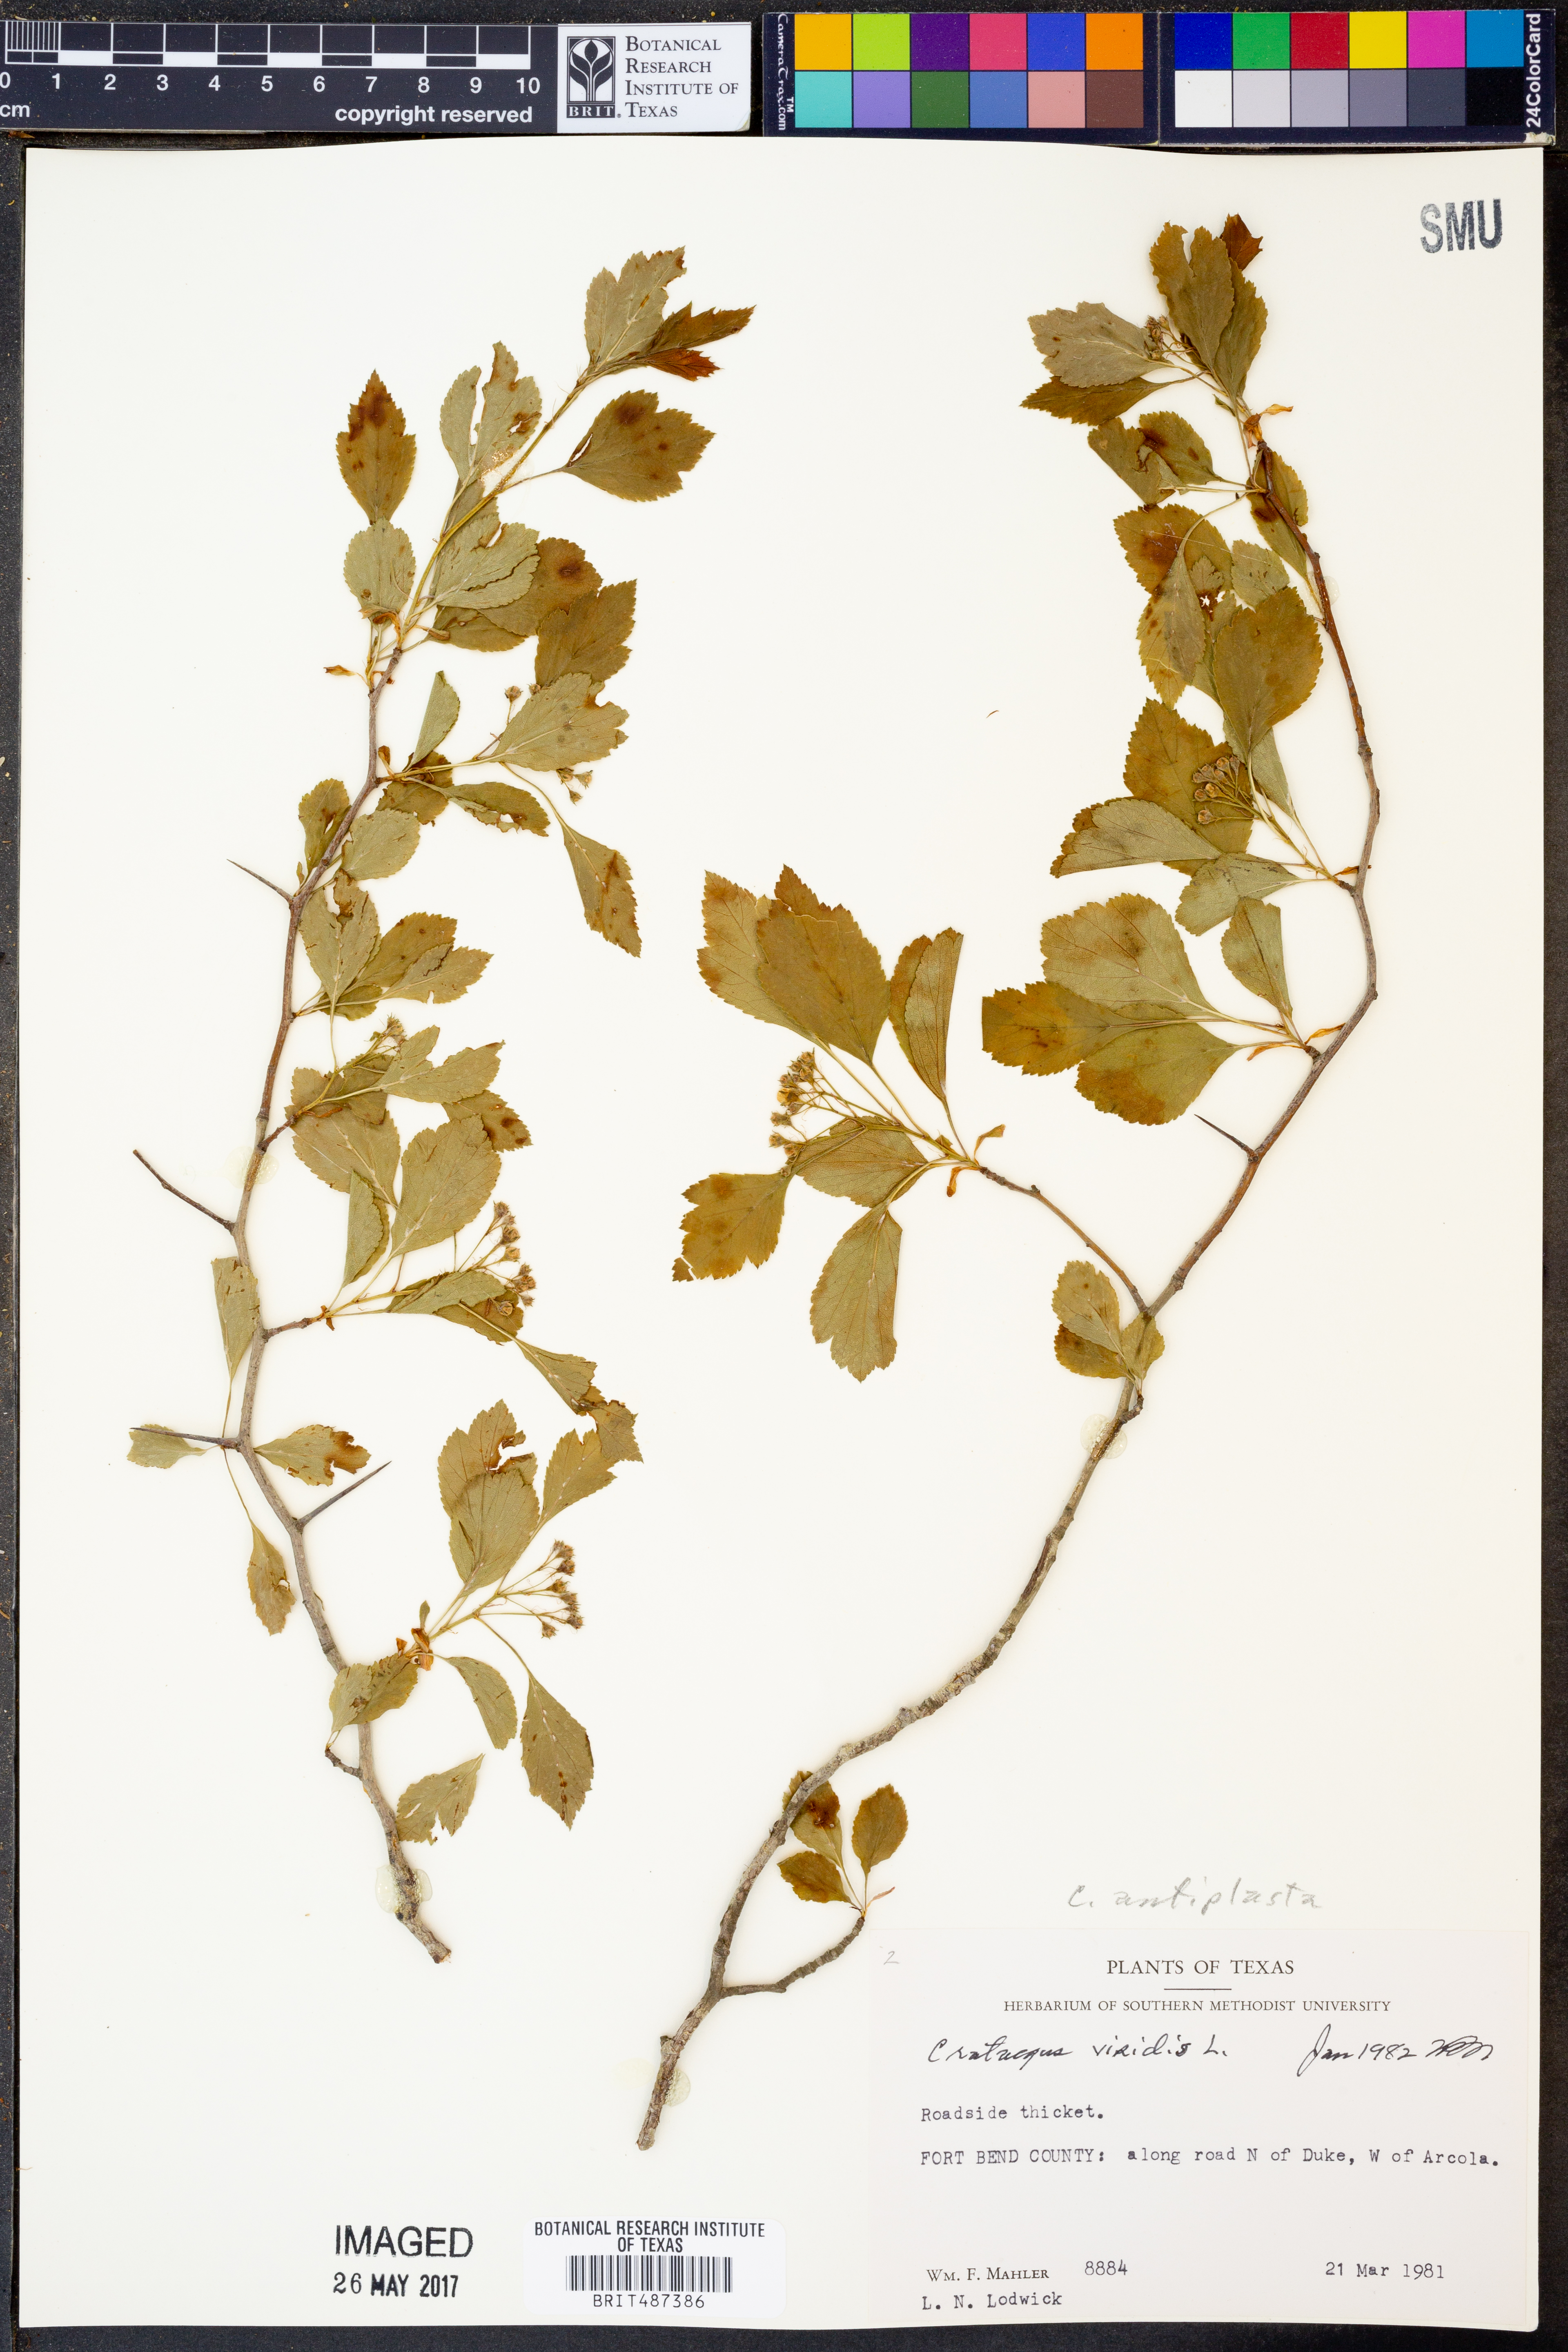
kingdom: Plantae
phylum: Tracheophyta
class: Magnoliopsida
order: Rosales
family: Rosaceae
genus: Crataegus
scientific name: Crataegus viridis
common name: Southernthorn
